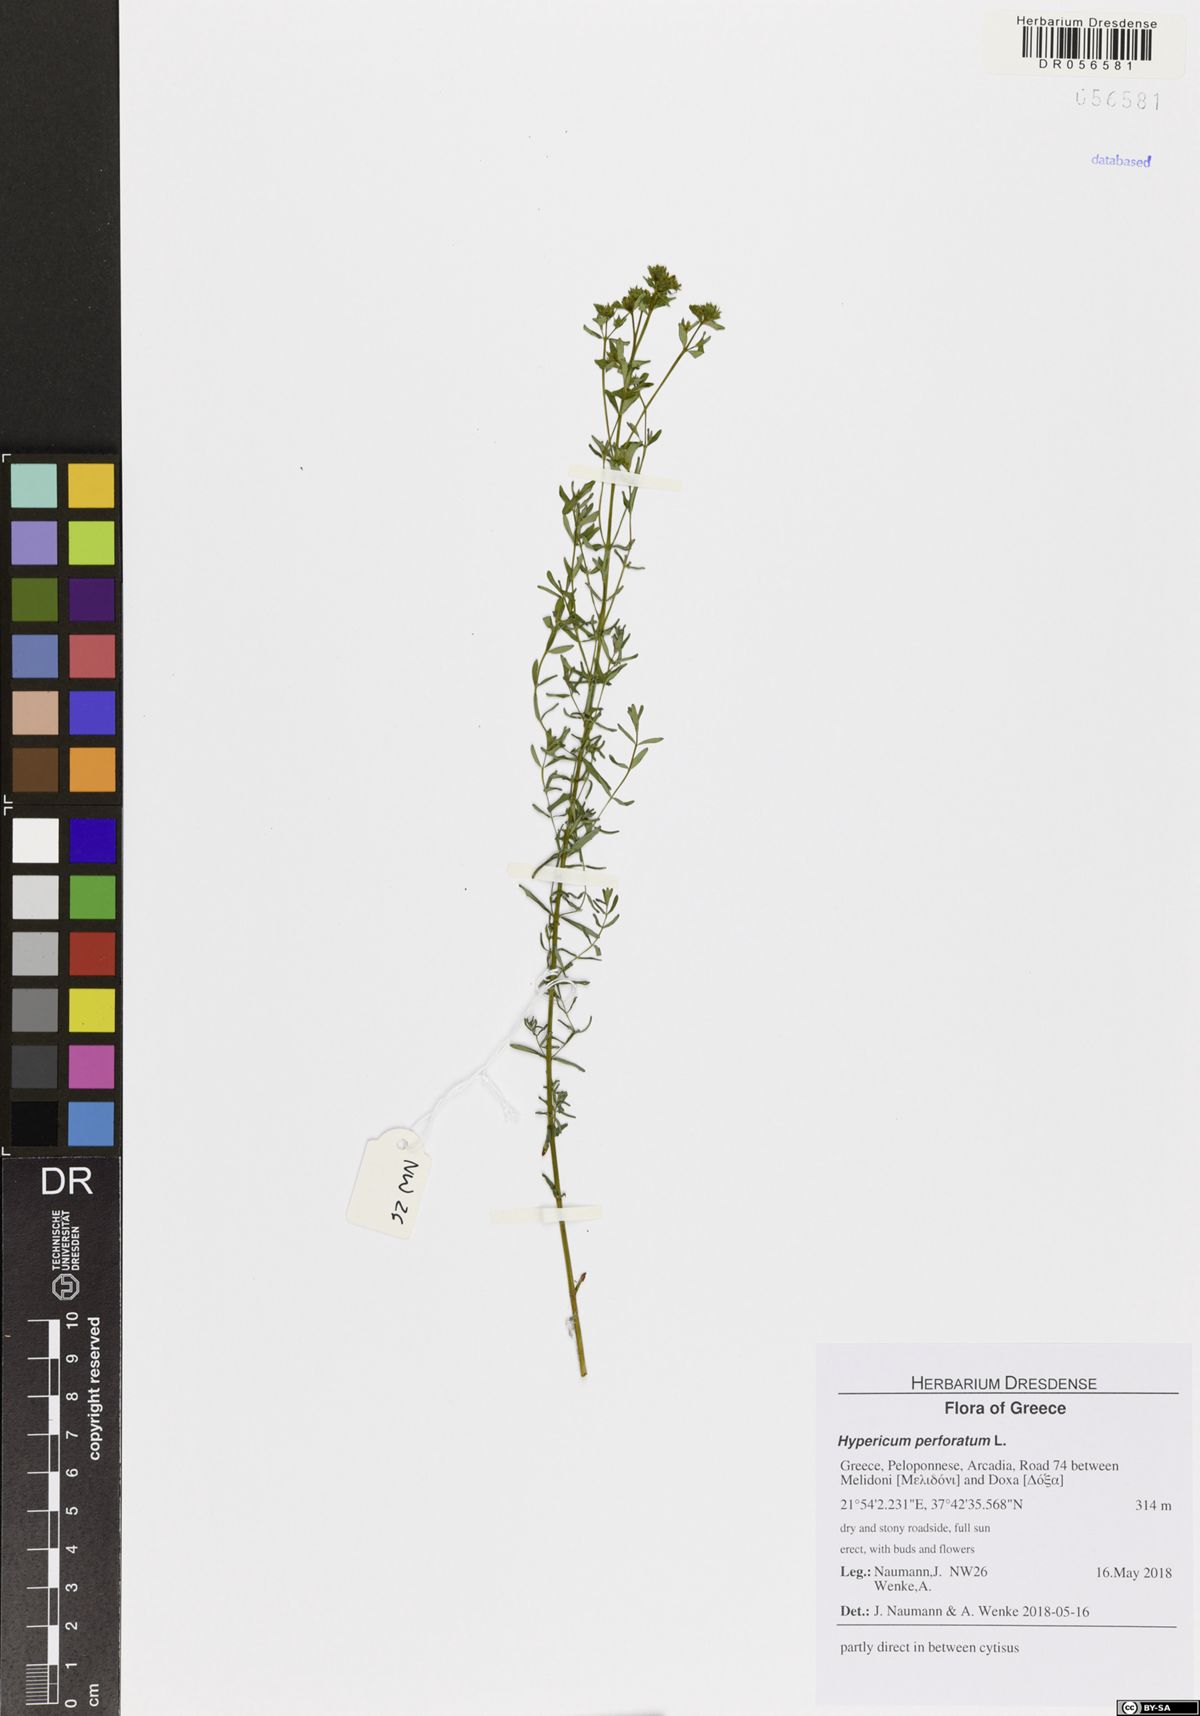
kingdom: Plantae
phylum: Tracheophyta
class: Magnoliopsida
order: Malpighiales
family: Hypericaceae
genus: Hypericum
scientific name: Hypericum perforatum
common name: Common st. johnswort
